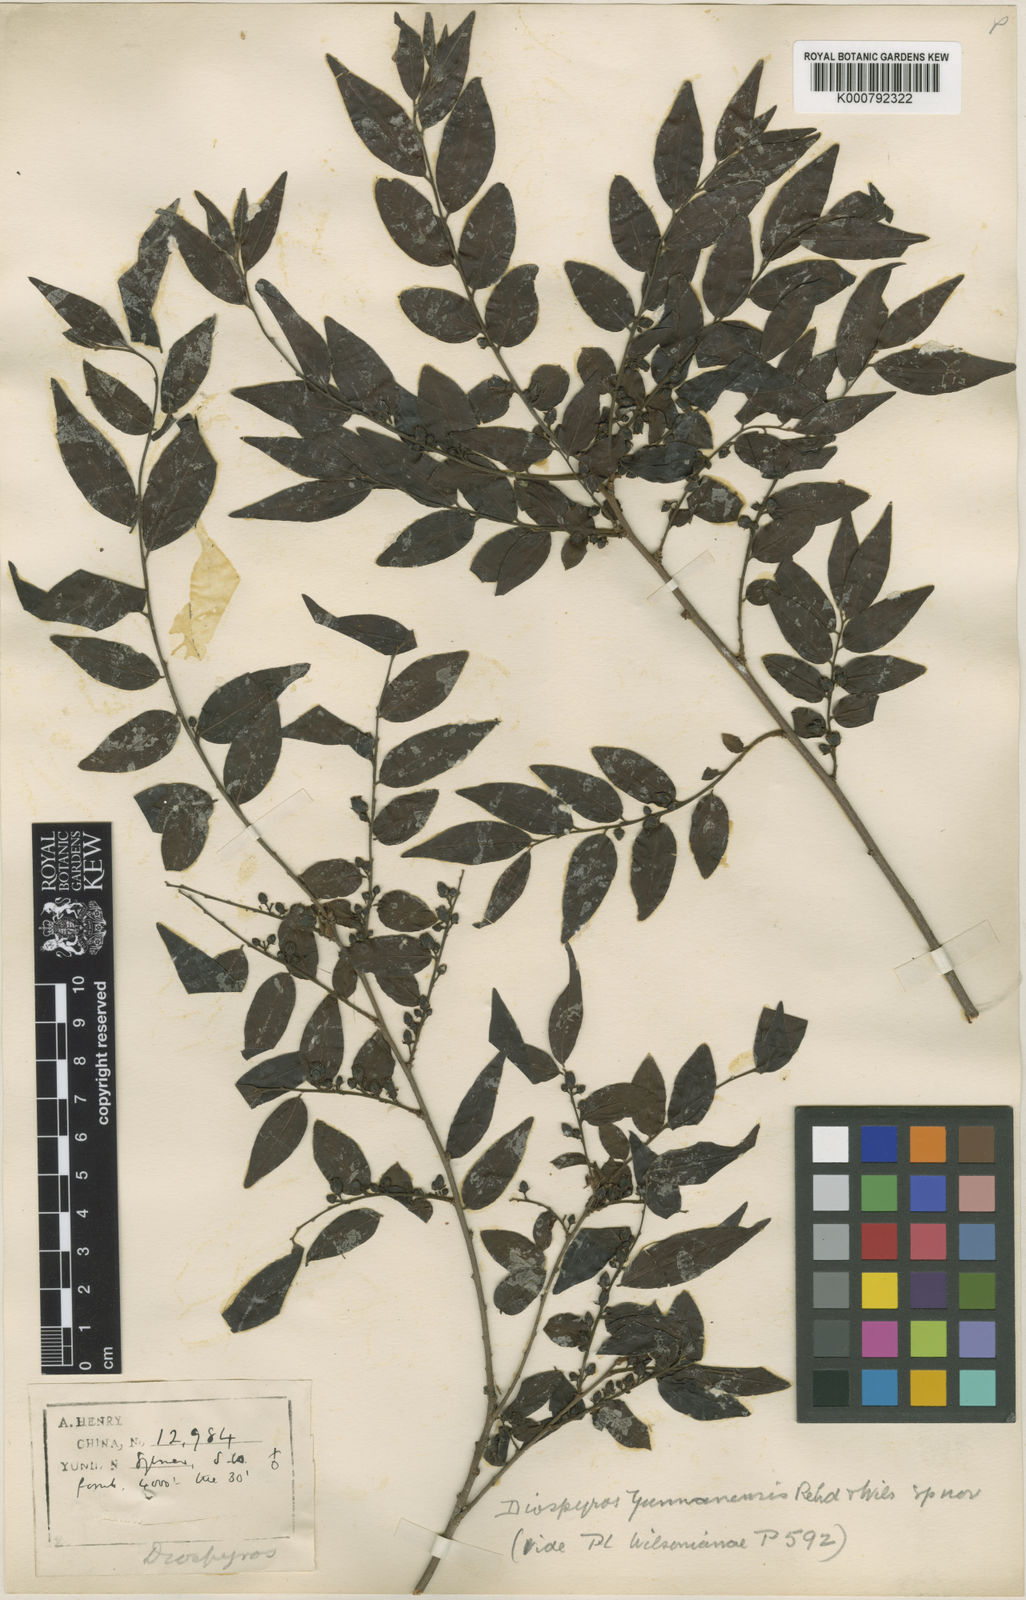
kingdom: Plantae
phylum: Tracheophyta
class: Magnoliopsida
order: Ericales
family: Ebenaceae
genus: Diospyros
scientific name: Diospyros yunnanensis
